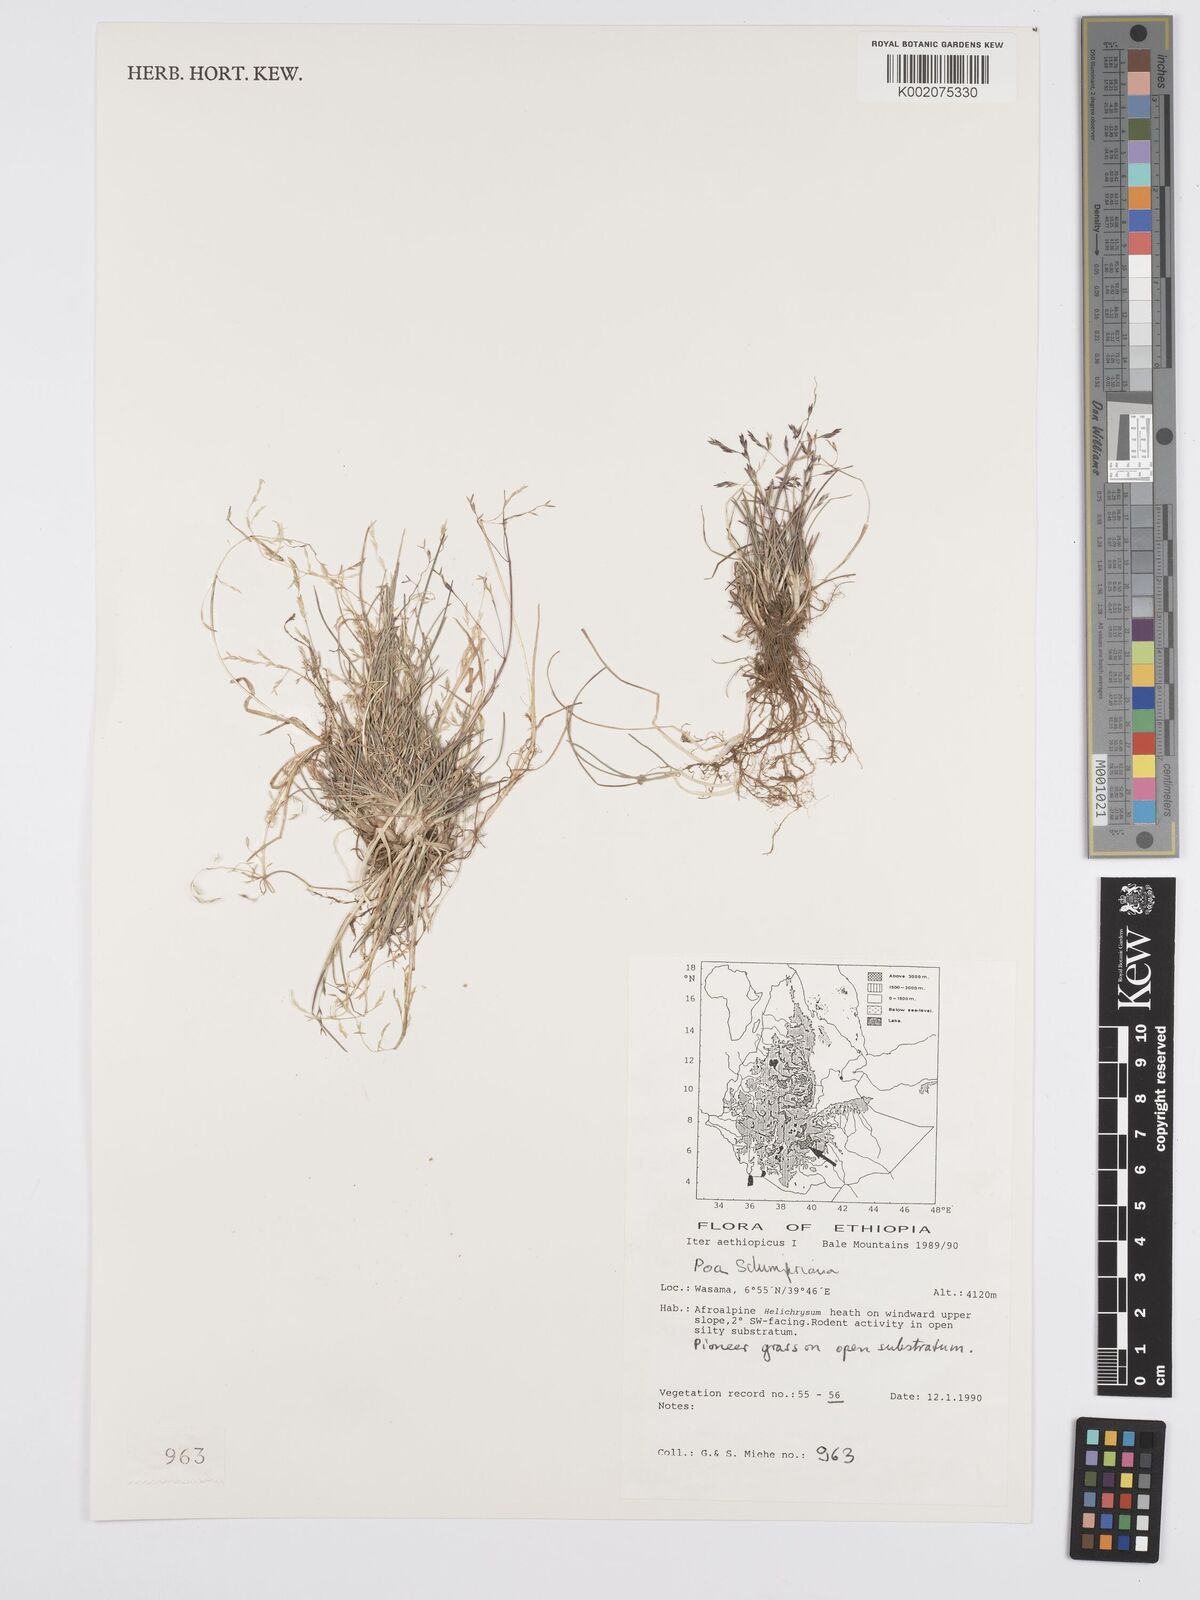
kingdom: Plantae
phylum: Tracheophyta
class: Liliopsida
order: Poales
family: Poaceae
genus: Poa
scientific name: Poa schimperiana
